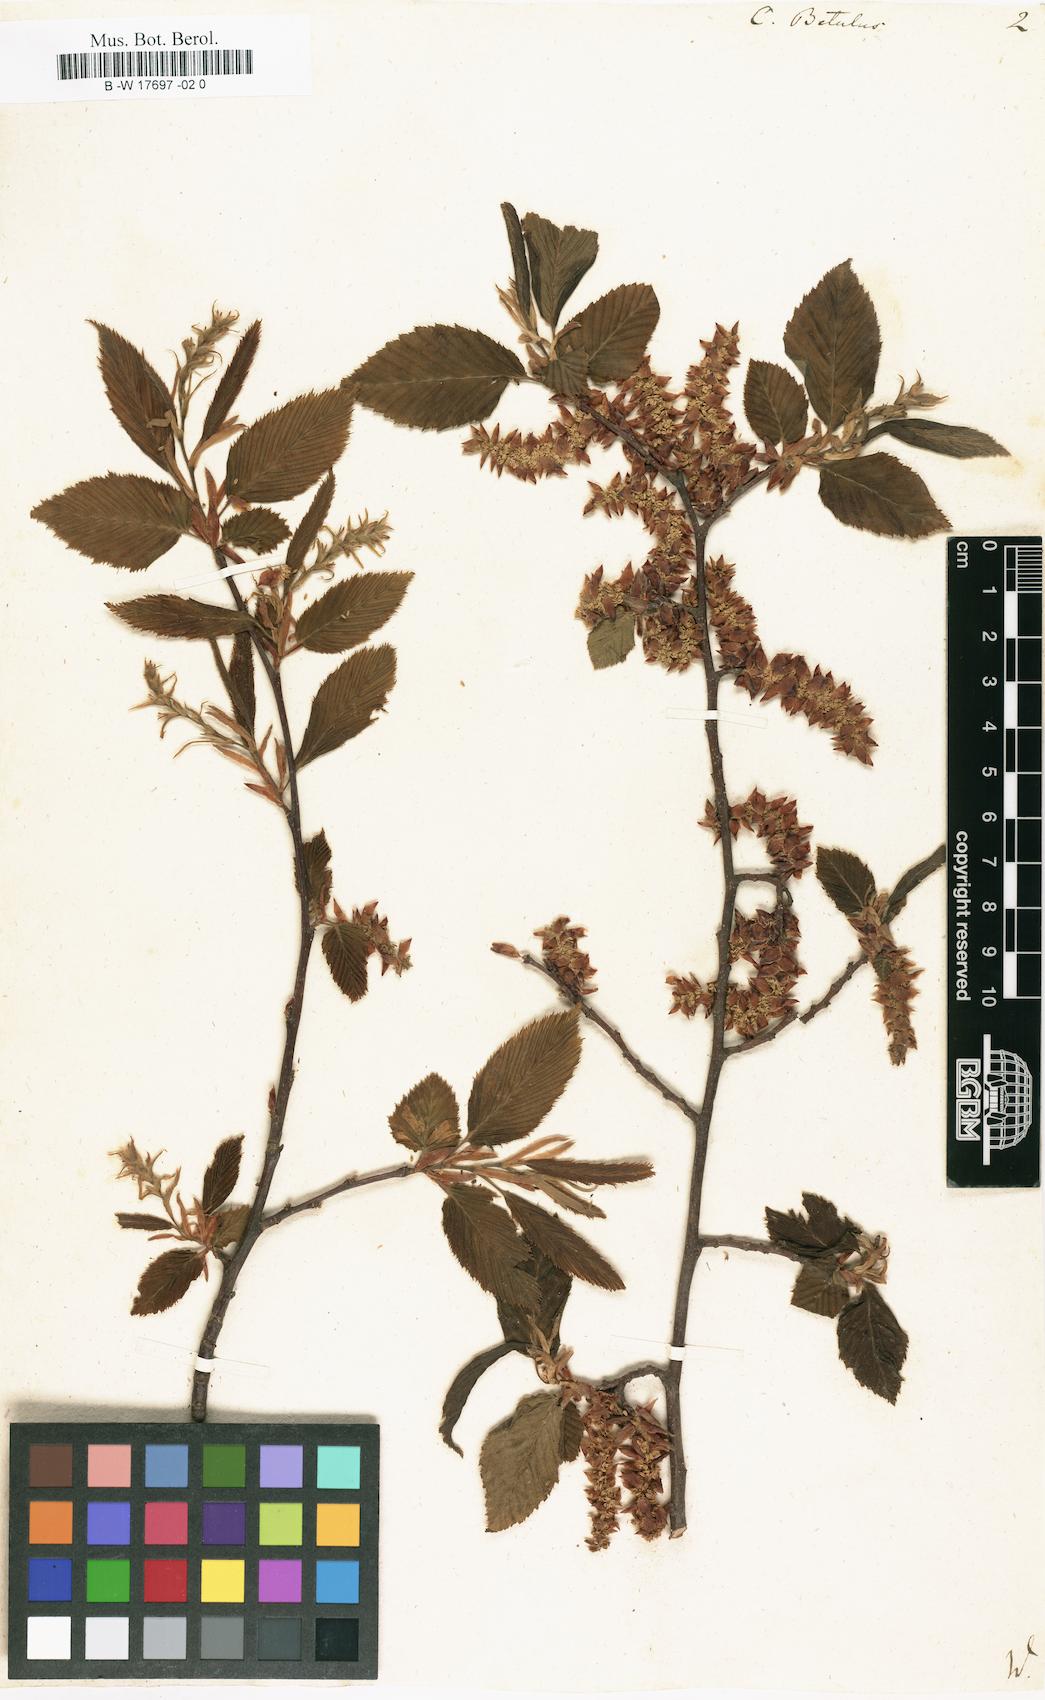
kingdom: Plantae
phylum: Tracheophyta
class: Magnoliopsida
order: Fagales
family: Betulaceae
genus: Carpinus
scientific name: Carpinus betulus
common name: Hornbeam
